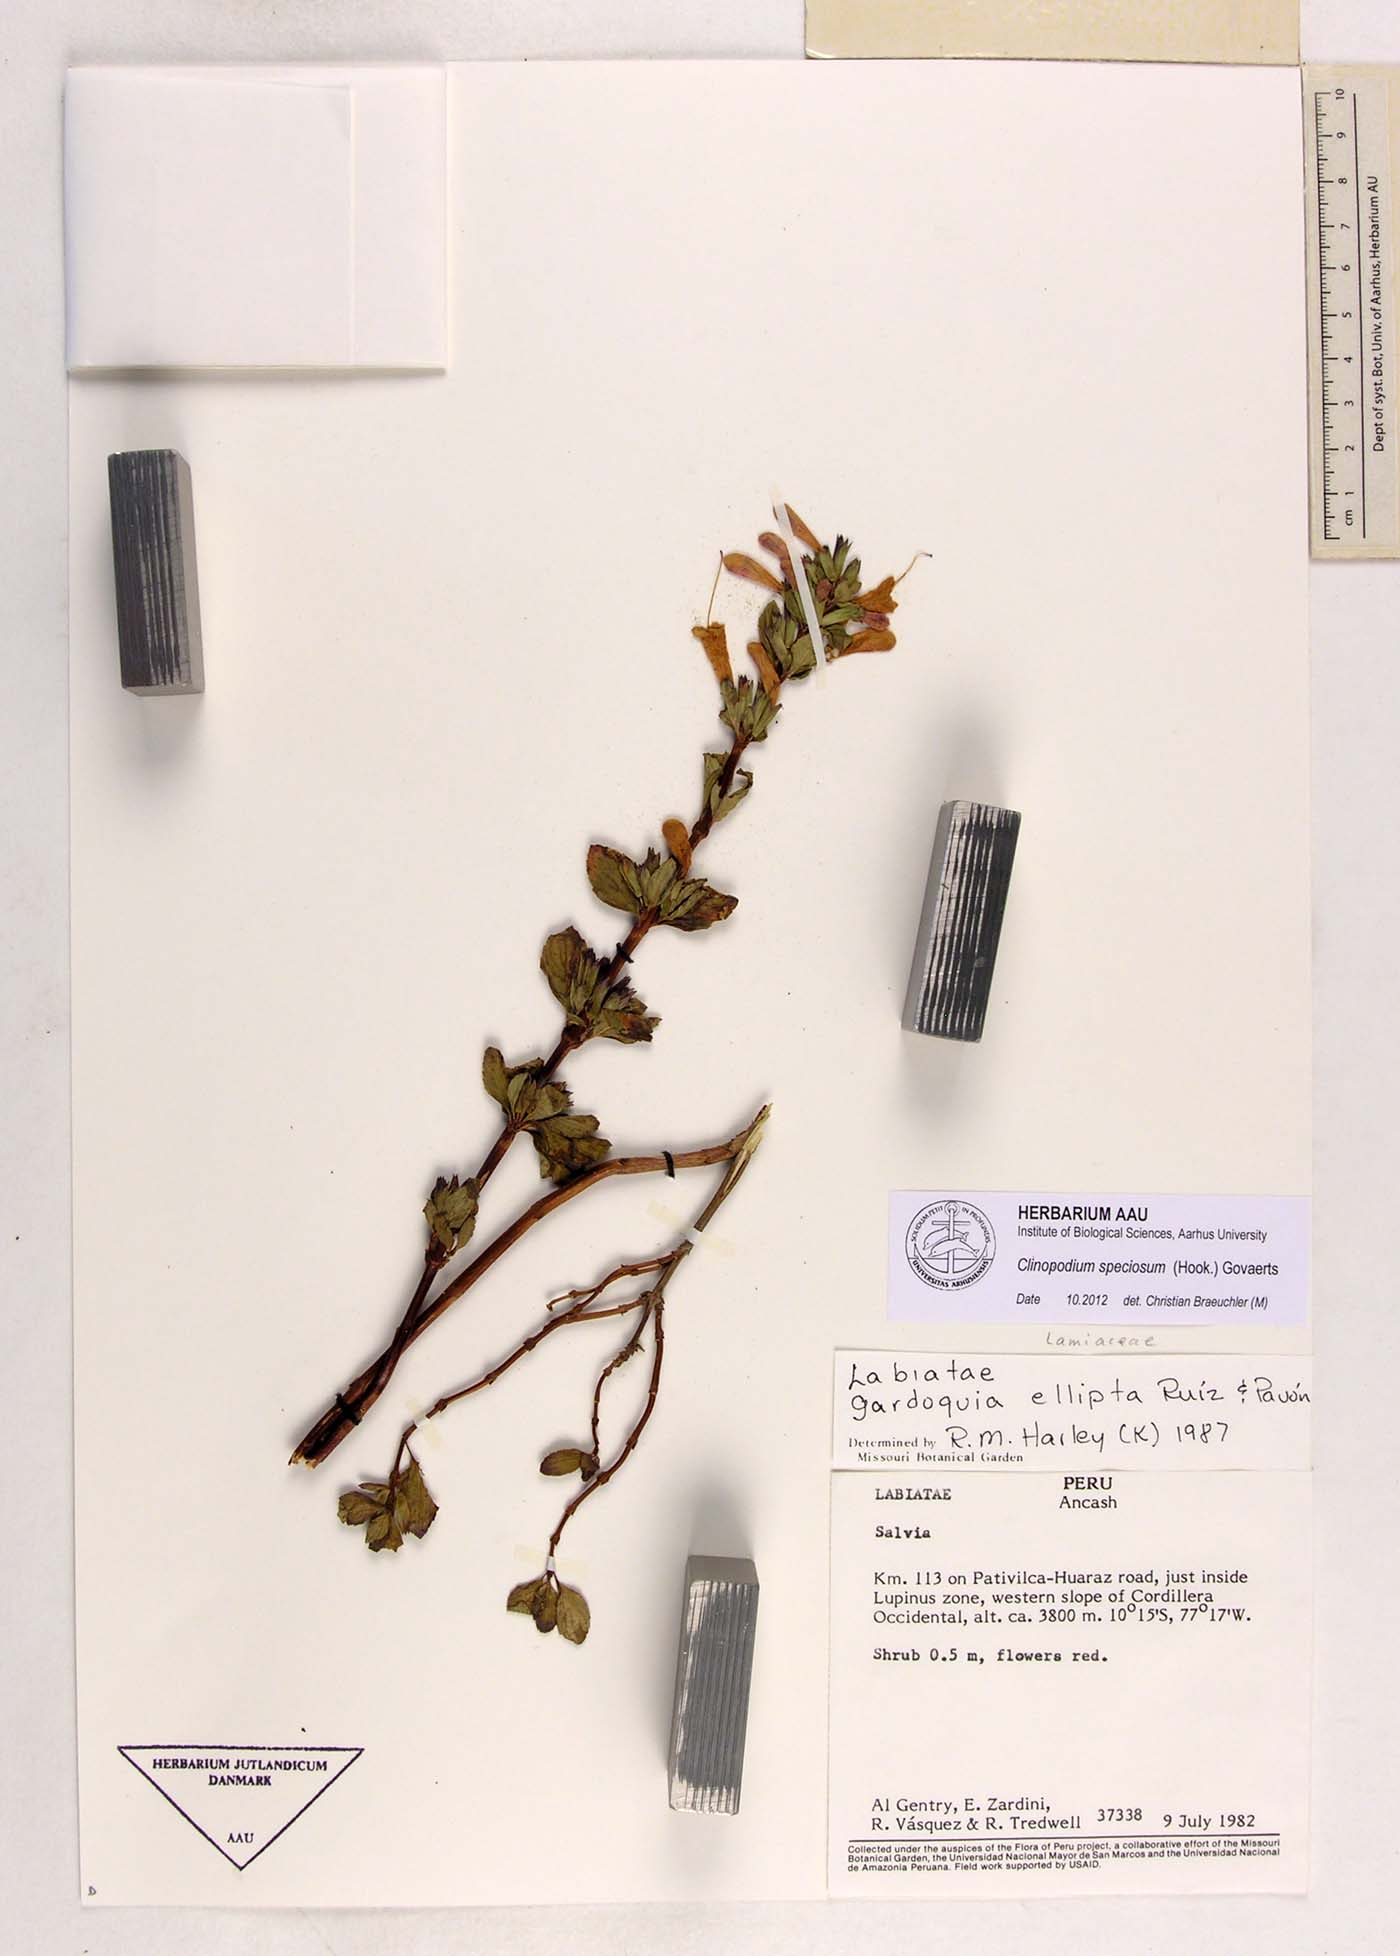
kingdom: Plantae
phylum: Tracheophyta
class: Magnoliopsida
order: Lamiales
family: Lamiaceae
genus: Clinopodium
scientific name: Clinopodium speciosum
